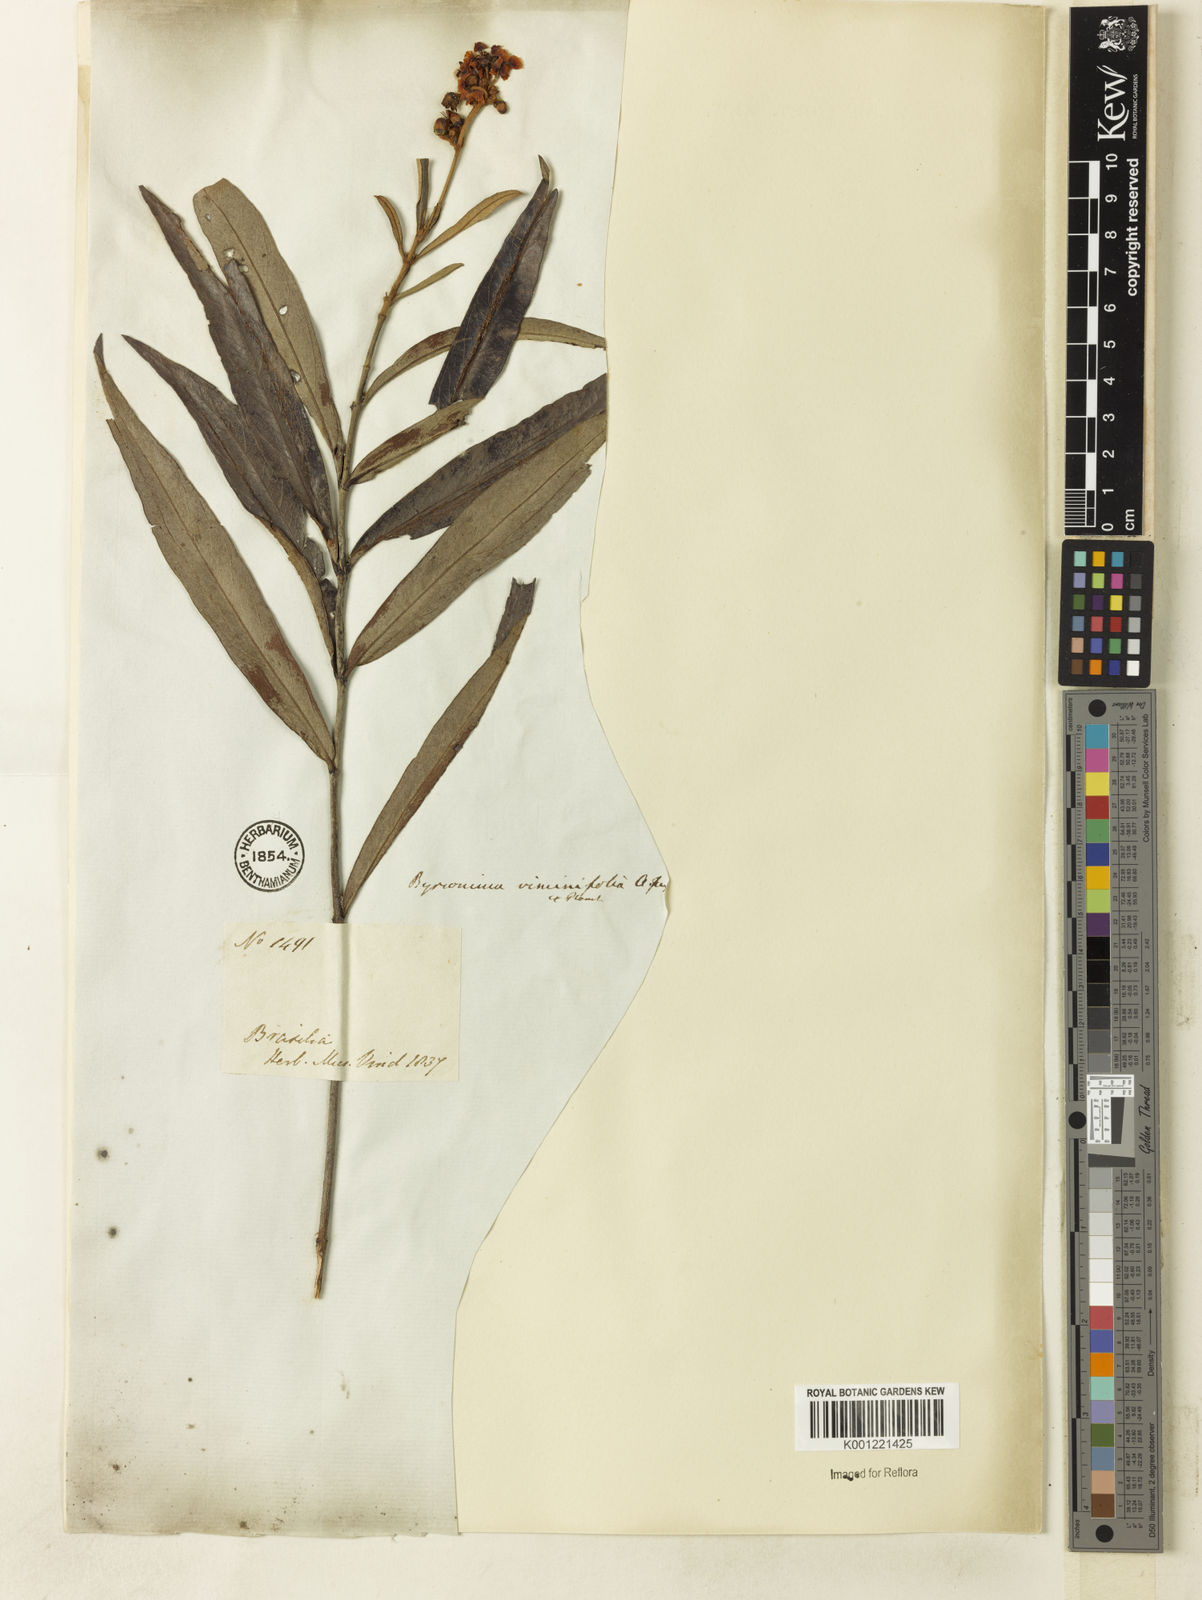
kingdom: Plantae
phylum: Tracheophyta
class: Magnoliopsida
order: Malpighiales
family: Malpighiaceae
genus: Byrsonima
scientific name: Byrsonima viminifolia
